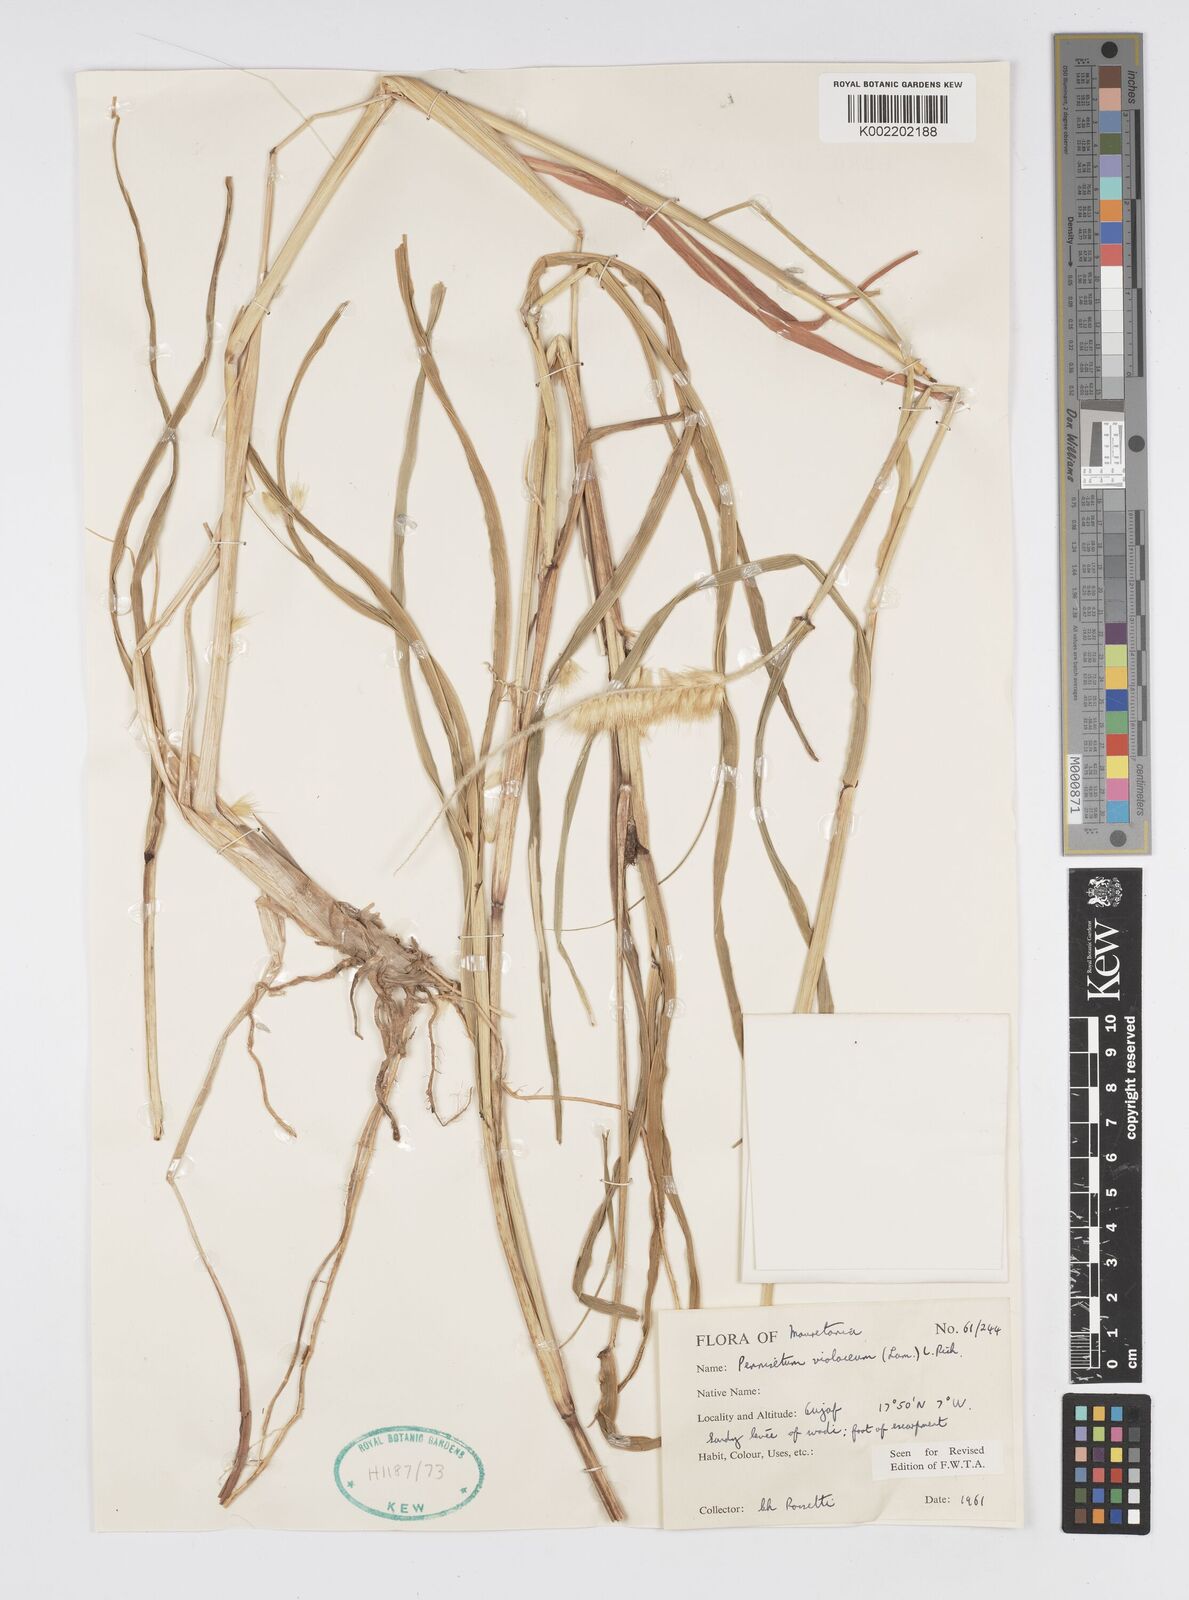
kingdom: Plantae
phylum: Tracheophyta
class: Liliopsida
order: Poales
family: Poaceae
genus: Cenchrus
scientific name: Cenchrus violaceus
